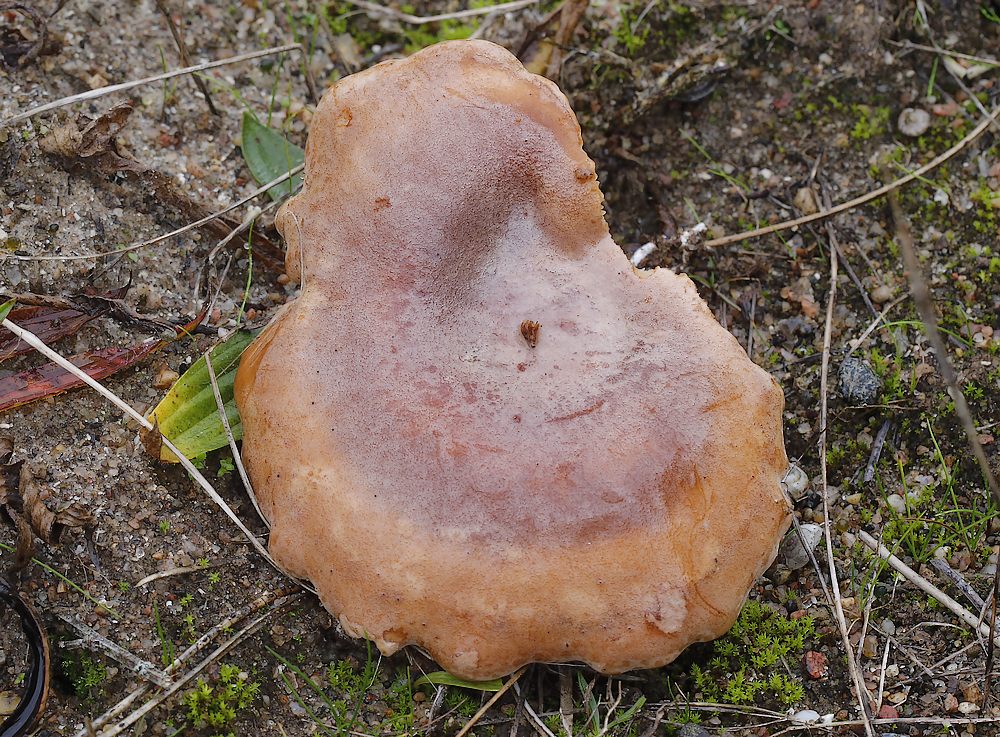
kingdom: Fungi
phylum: Basidiomycota
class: Agaricomycetes
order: Agaricales
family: Pseudoclitocybaceae
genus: Bonomyces
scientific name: Bonomyces sinopicus
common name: svedje-tragthat
